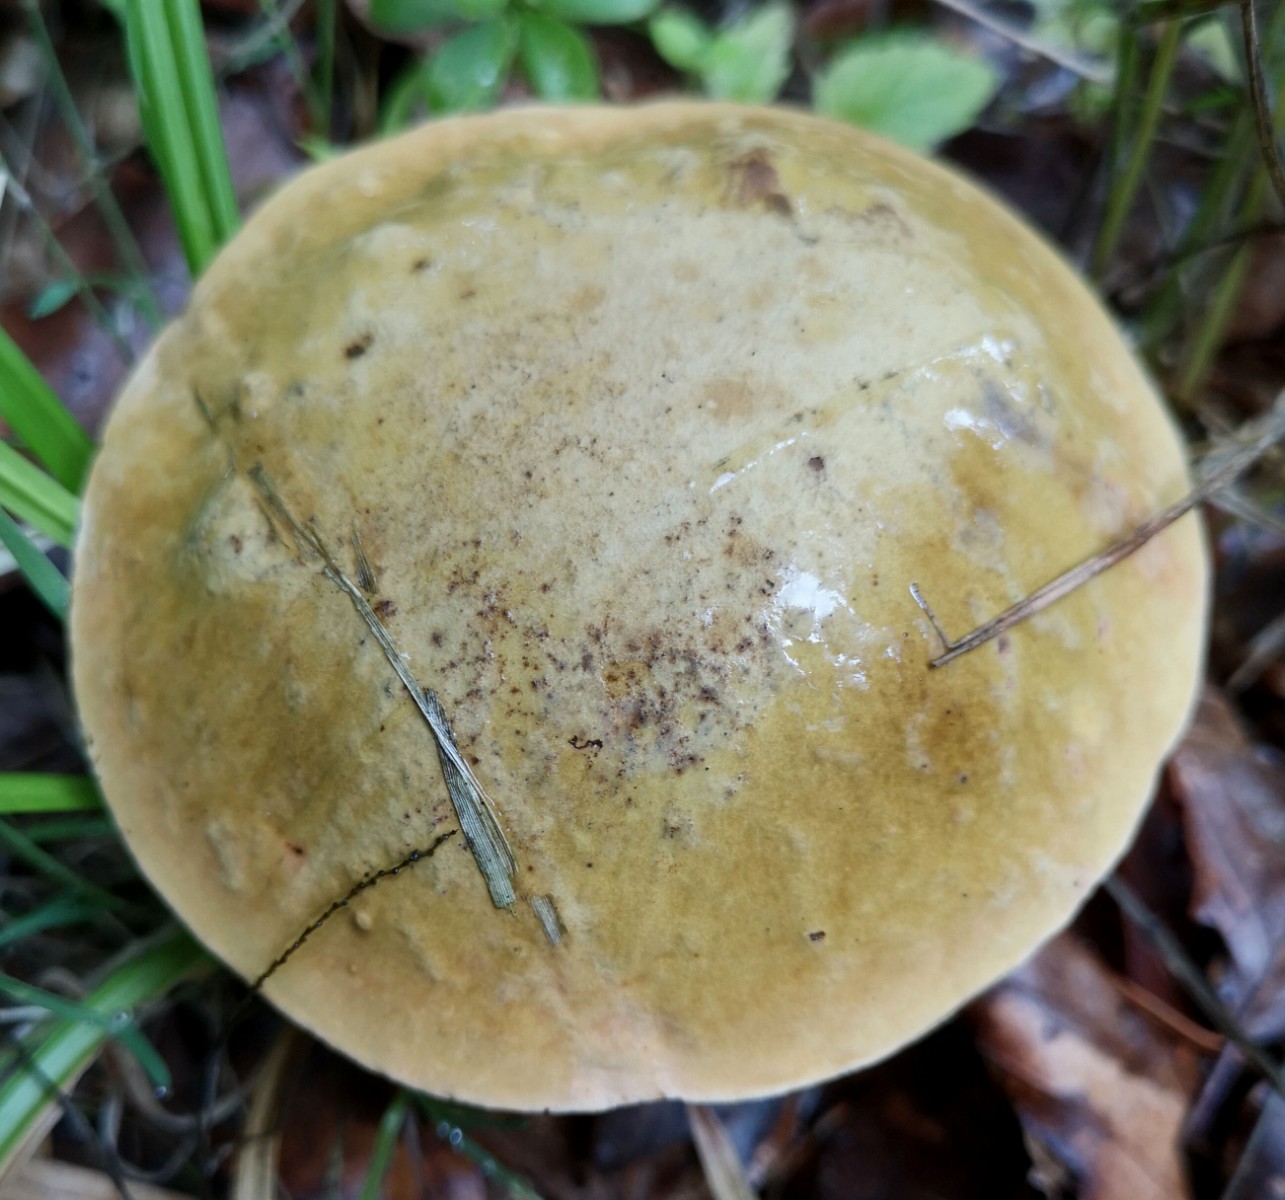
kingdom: Fungi
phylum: Basidiomycota
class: Agaricomycetes
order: Boletales
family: Boletaceae
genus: Suillellus
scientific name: Suillellus luridus
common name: netstokket indigorørhat
